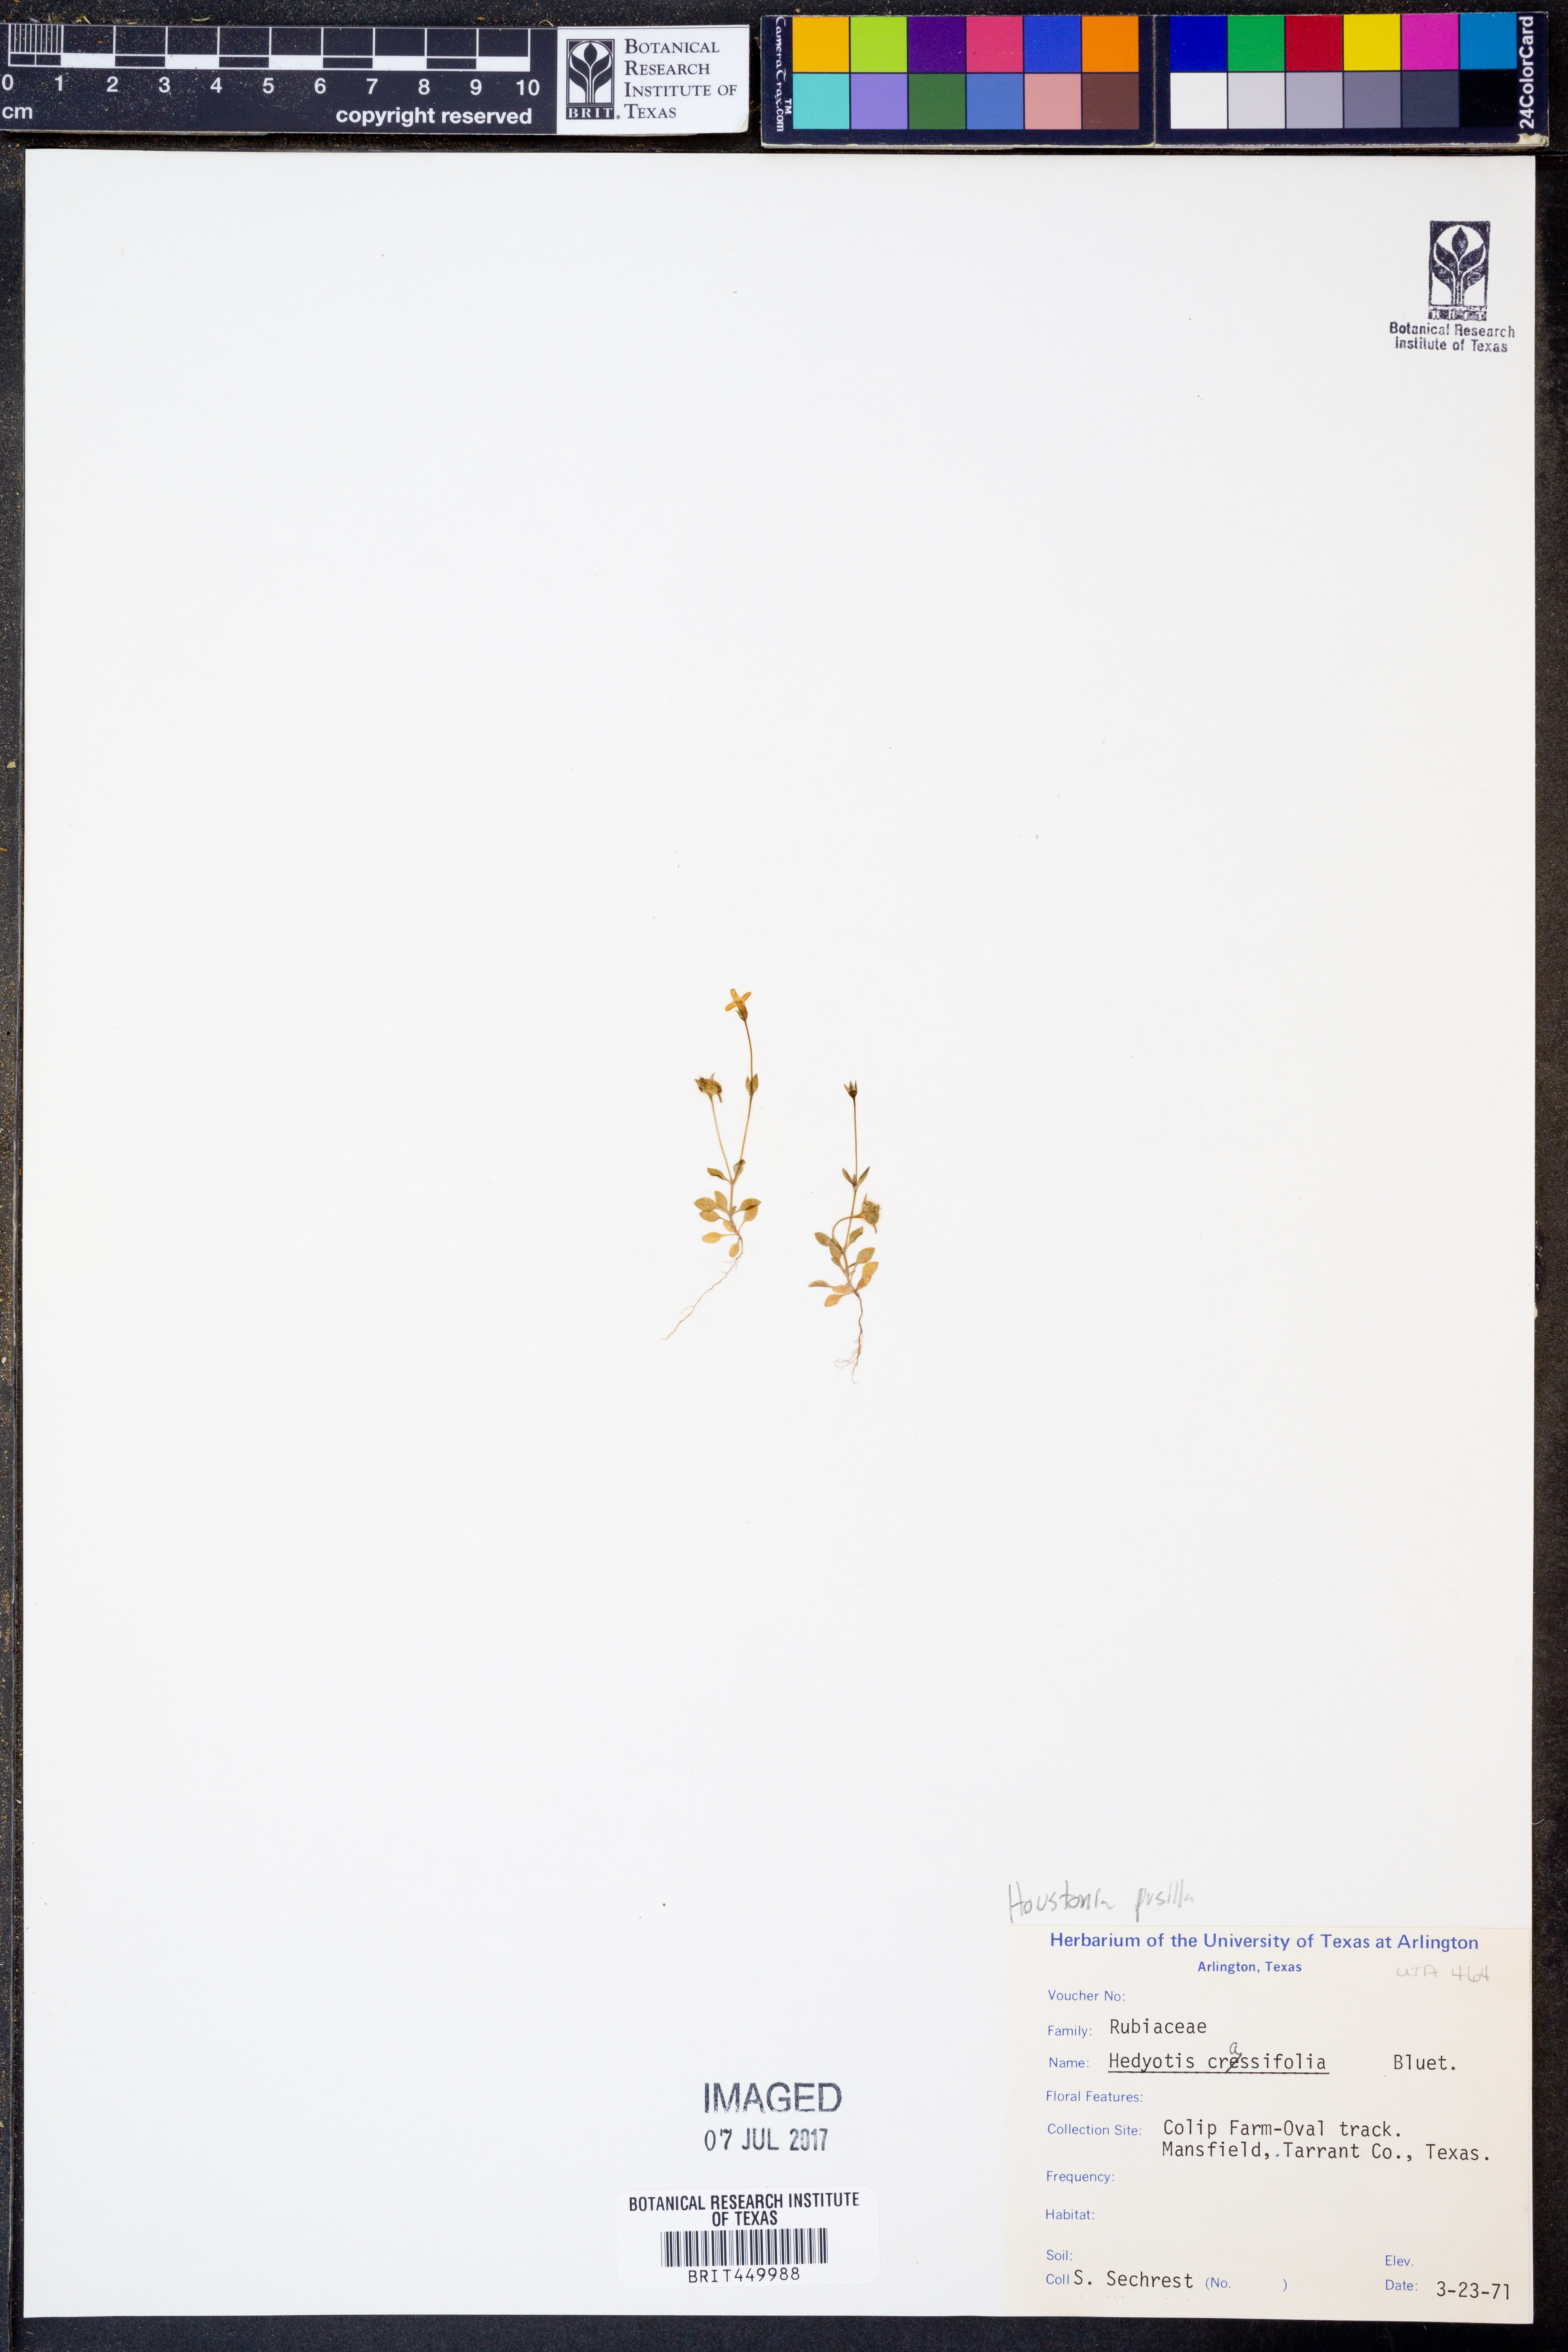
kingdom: Plantae
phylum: Tracheophyta
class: Magnoliopsida
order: Gentianales
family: Rubiaceae
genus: Houstonia
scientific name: Houstonia pusilla
